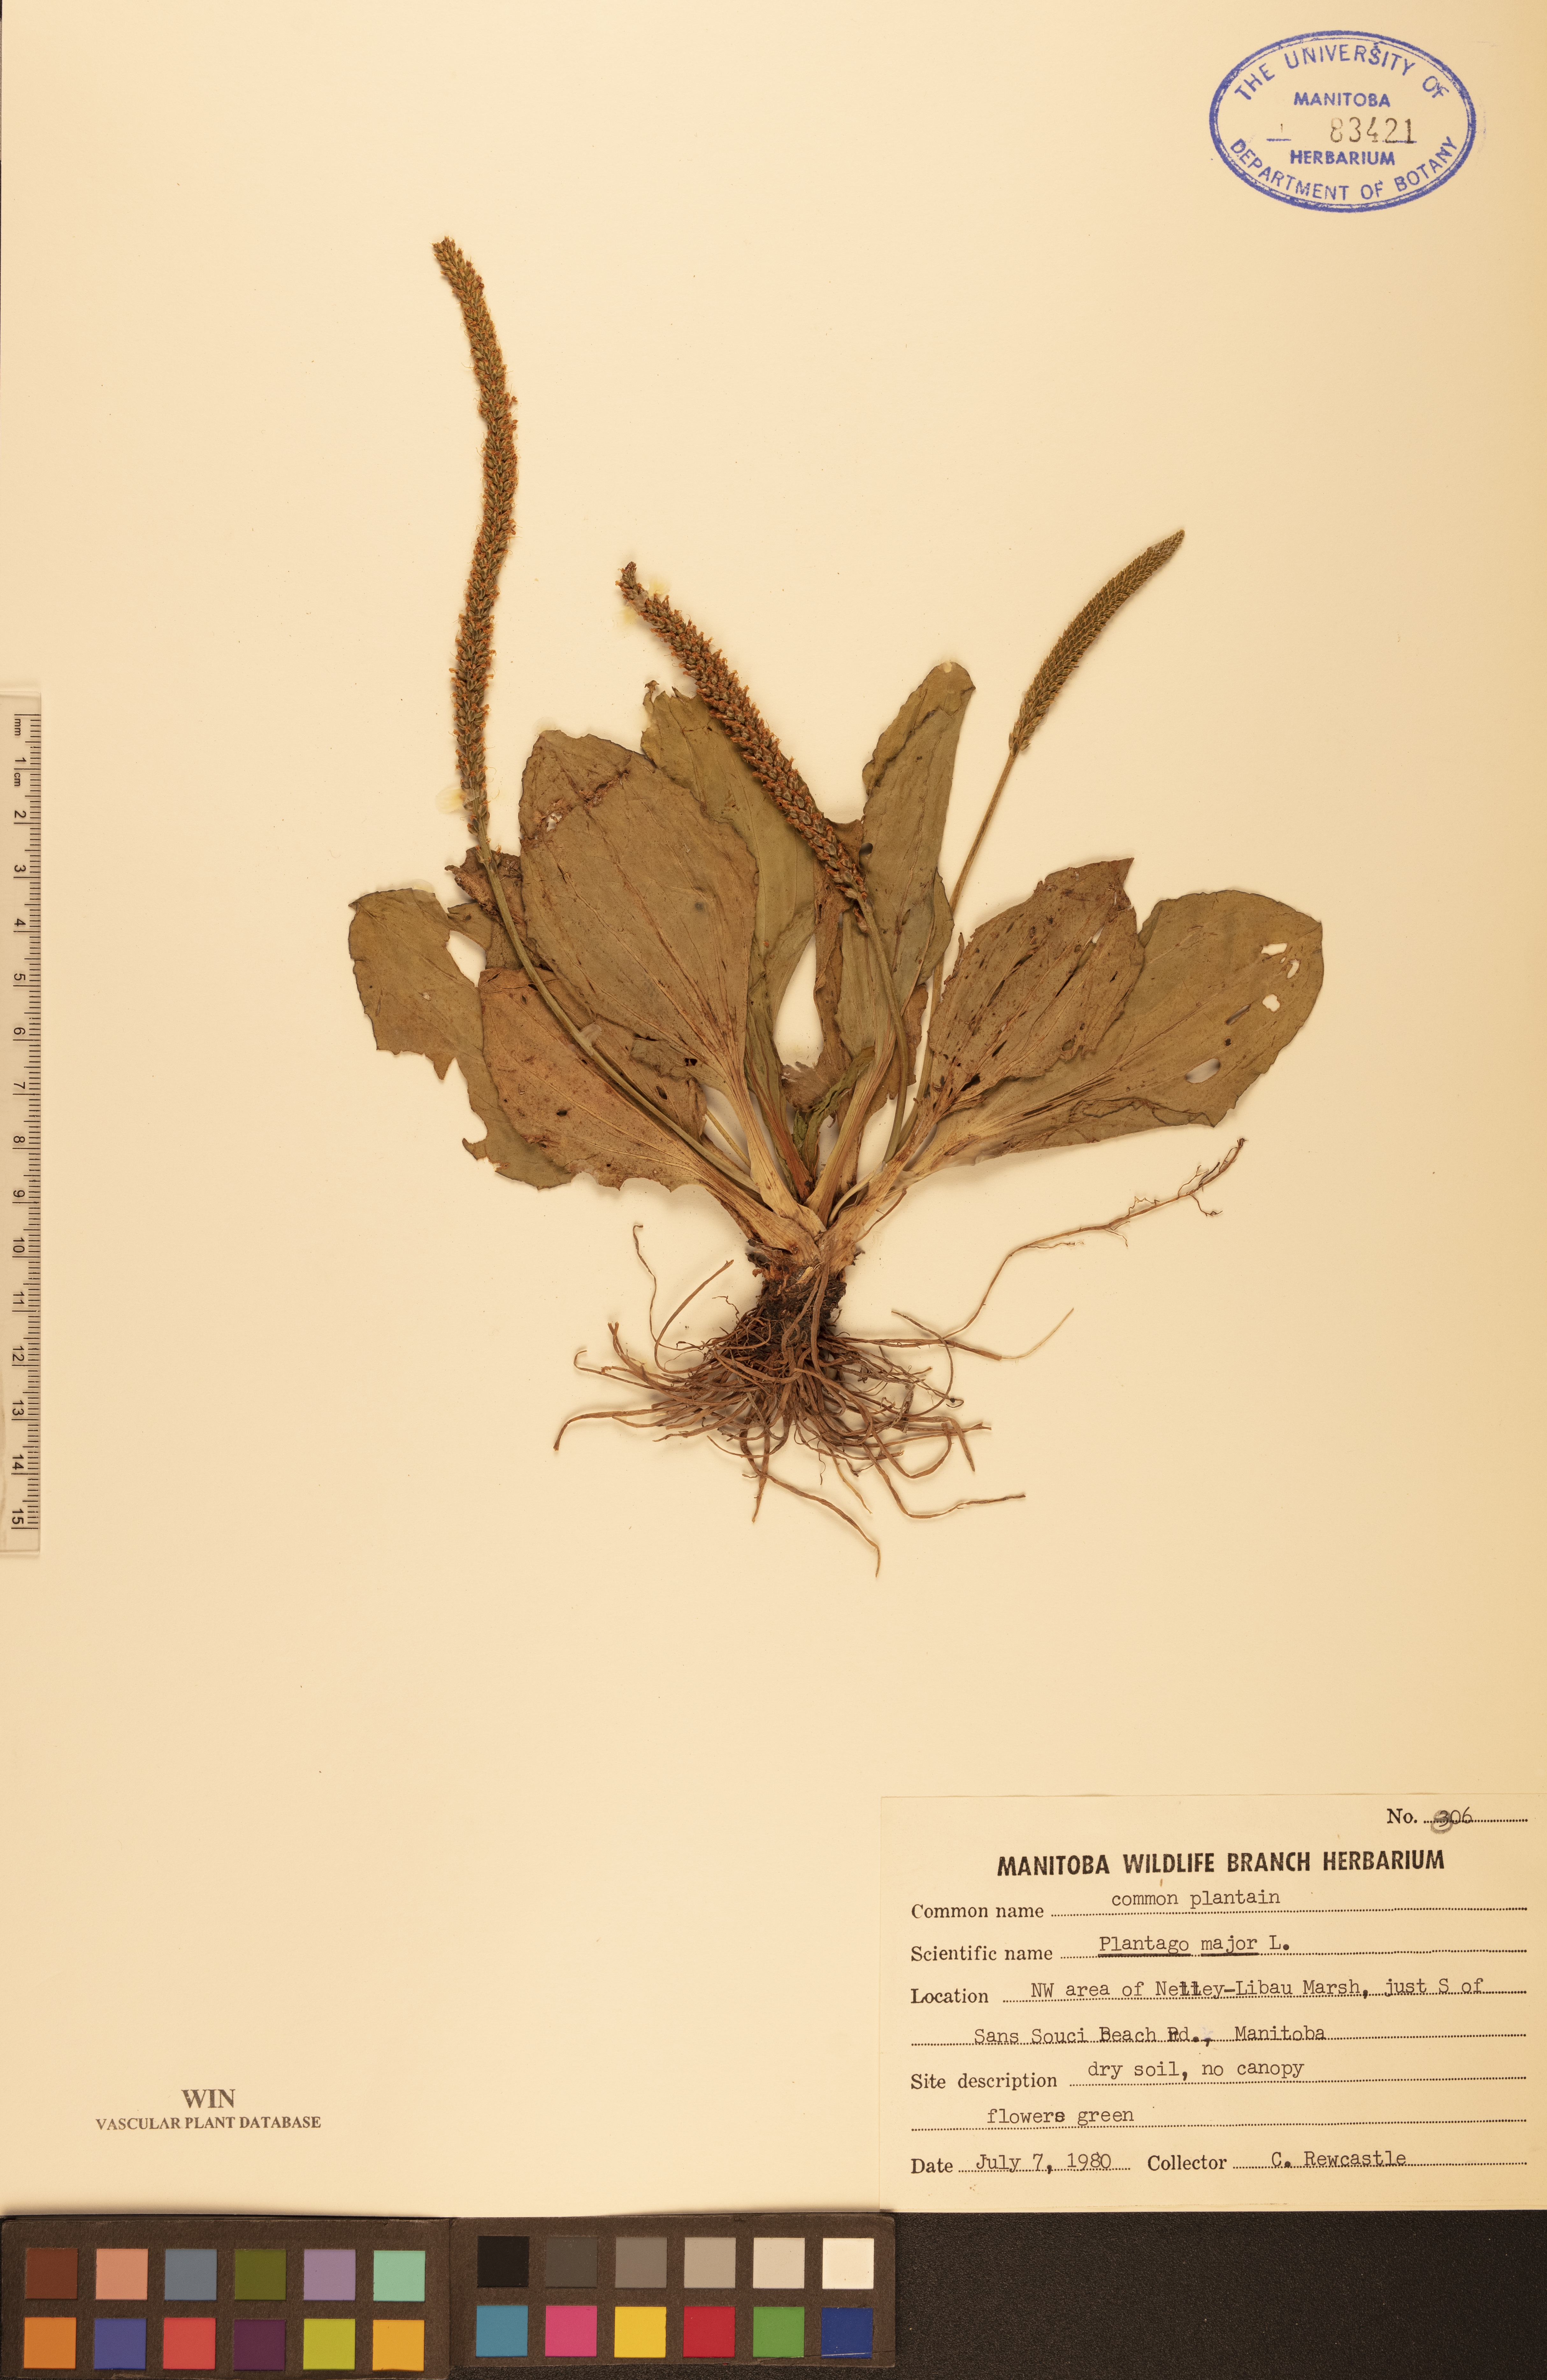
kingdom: Plantae
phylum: Tracheophyta
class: Magnoliopsida
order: Lamiales
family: Plantaginaceae
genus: Plantago
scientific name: Plantago major
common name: Common plantain
